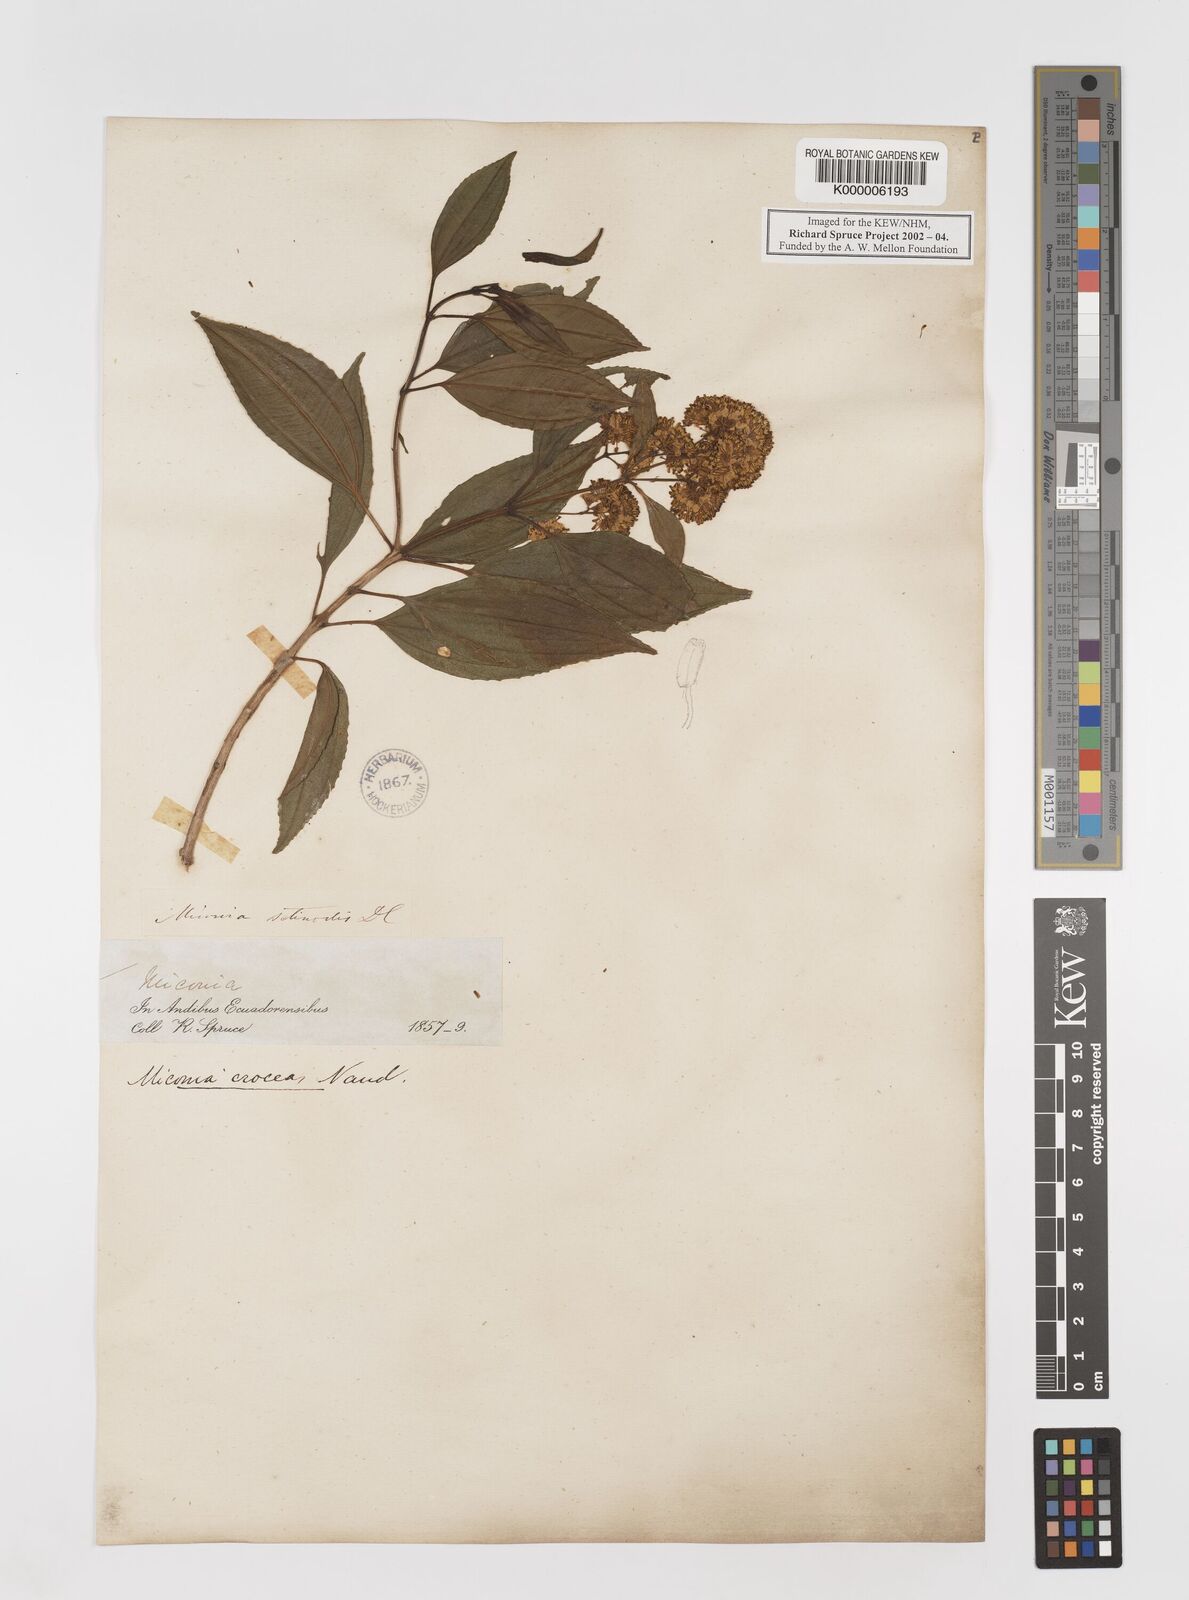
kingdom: Plantae
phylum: Tracheophyta
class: Magnoliopsida
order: Myrtales
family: Melastomataceae
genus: Miconia
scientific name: Miconia crocea
